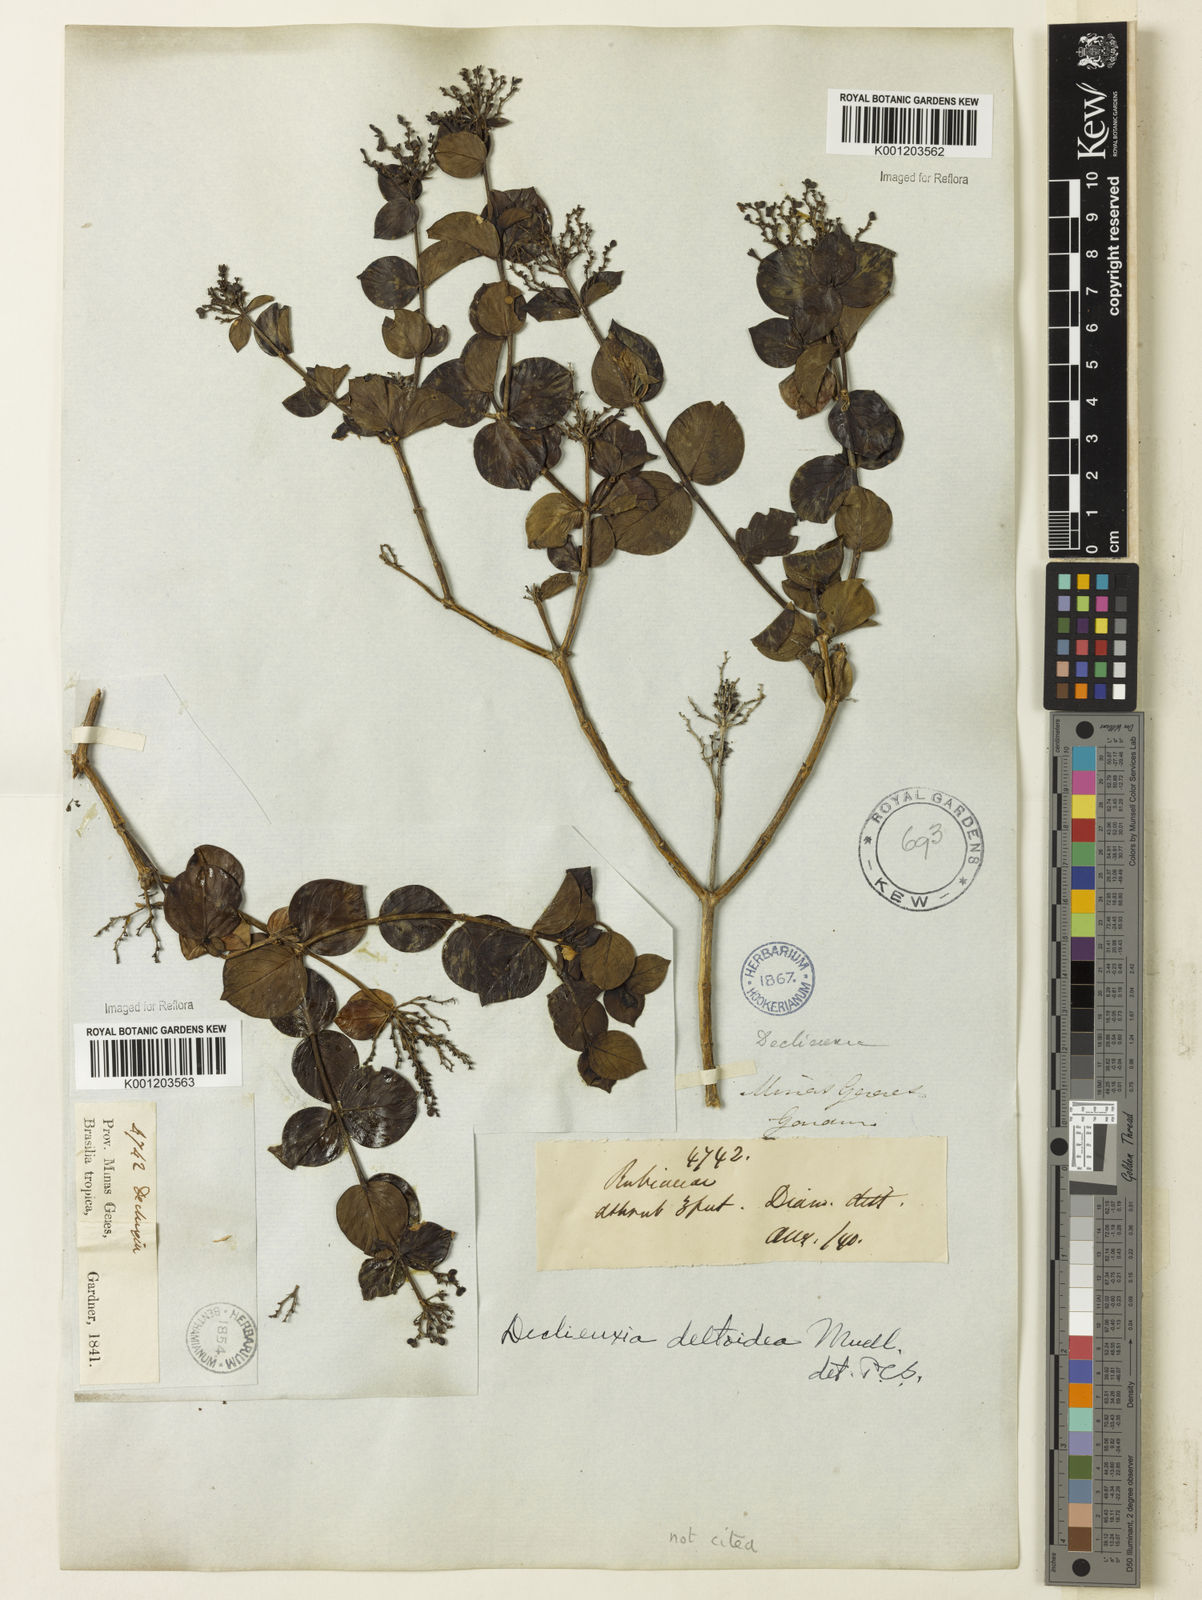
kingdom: Plantae
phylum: Tracheophyta
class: Magnoliopsida
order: Gentianales
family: Rubiaceae
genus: Declieuxia
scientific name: Declieuxia fruticosa
